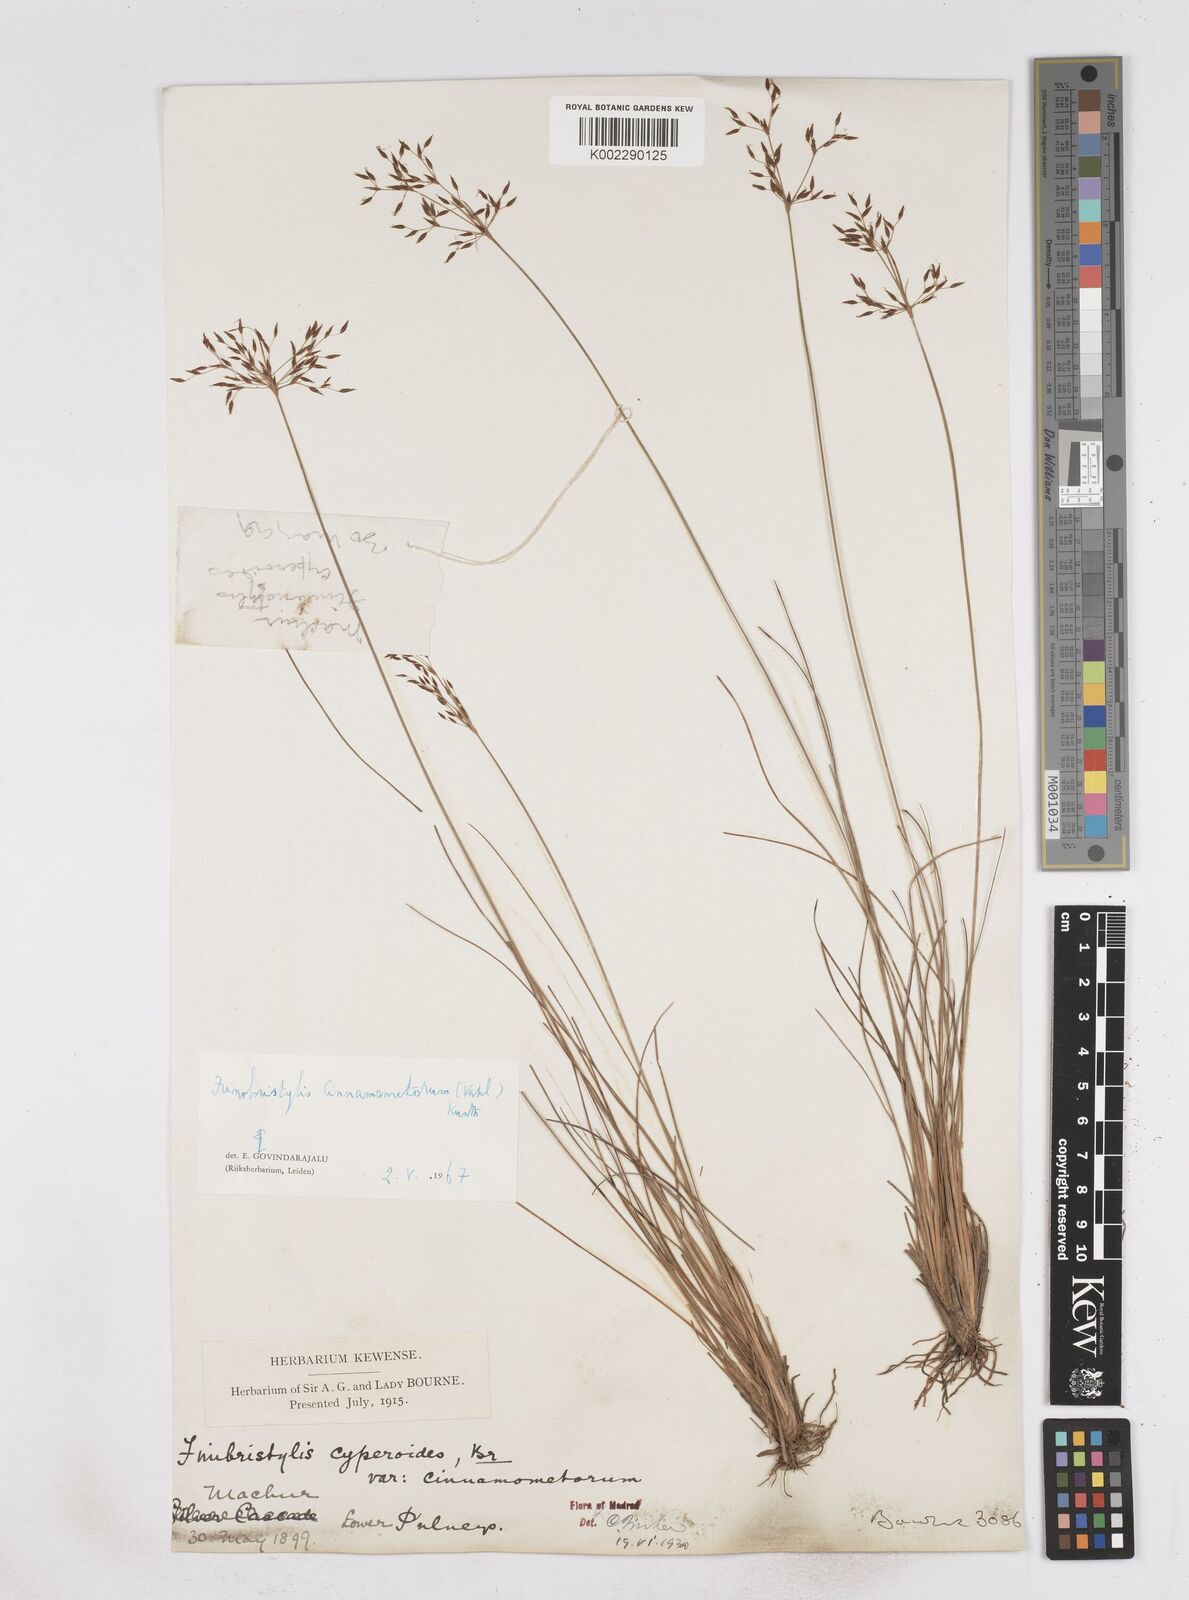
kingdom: Plantae
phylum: Tracheophyta
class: Liliopsida
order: Poales
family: Cyperaceae
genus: Fimbristylis
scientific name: Fimbristylis cinnamometorum
